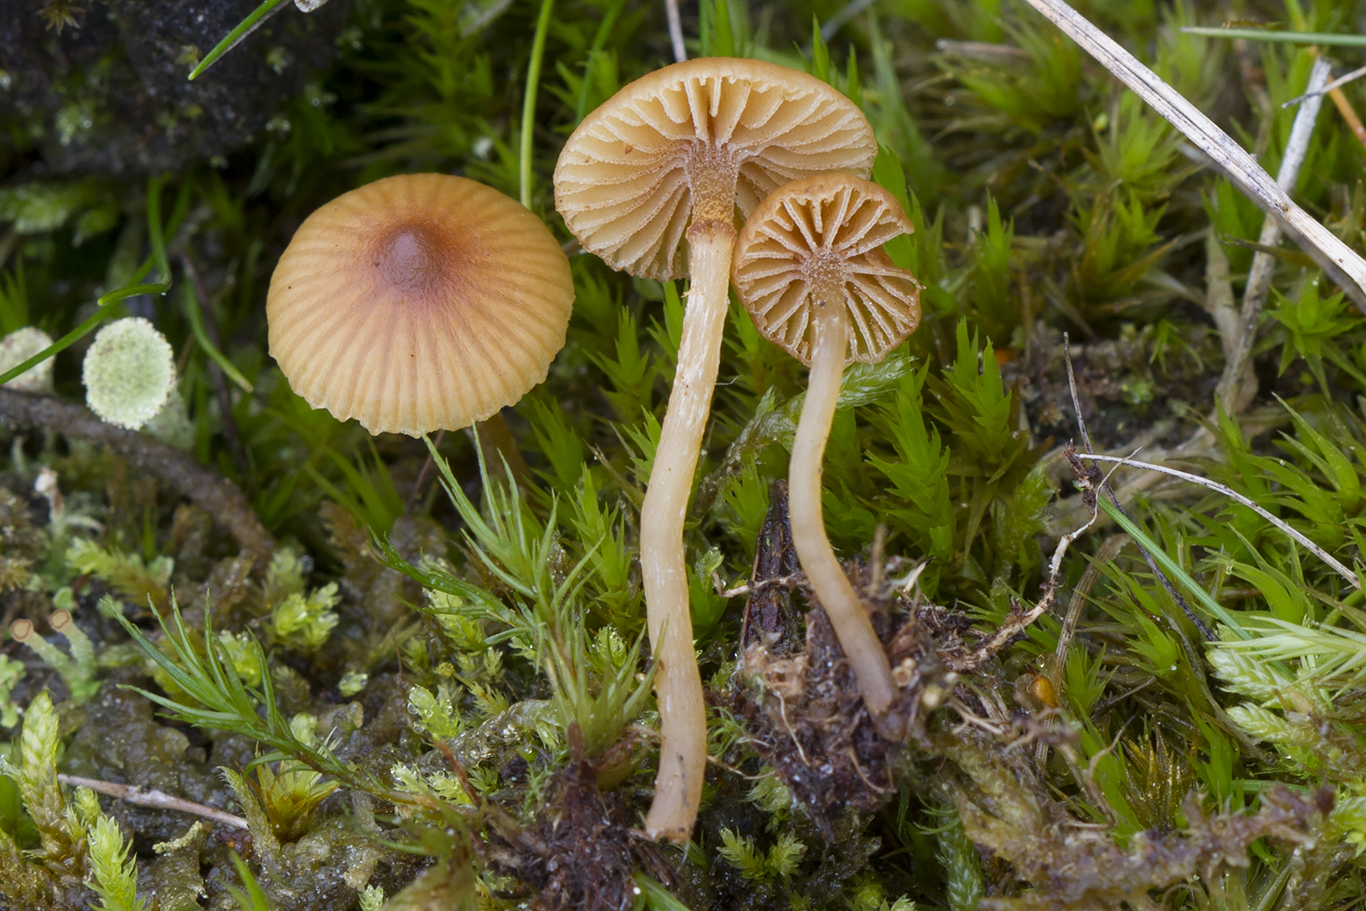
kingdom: Fungi
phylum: Basidiomycota
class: Agaricomycetes
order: Agaricales
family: Hymenogastraceae
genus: Galerina
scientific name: Galerina allospora
